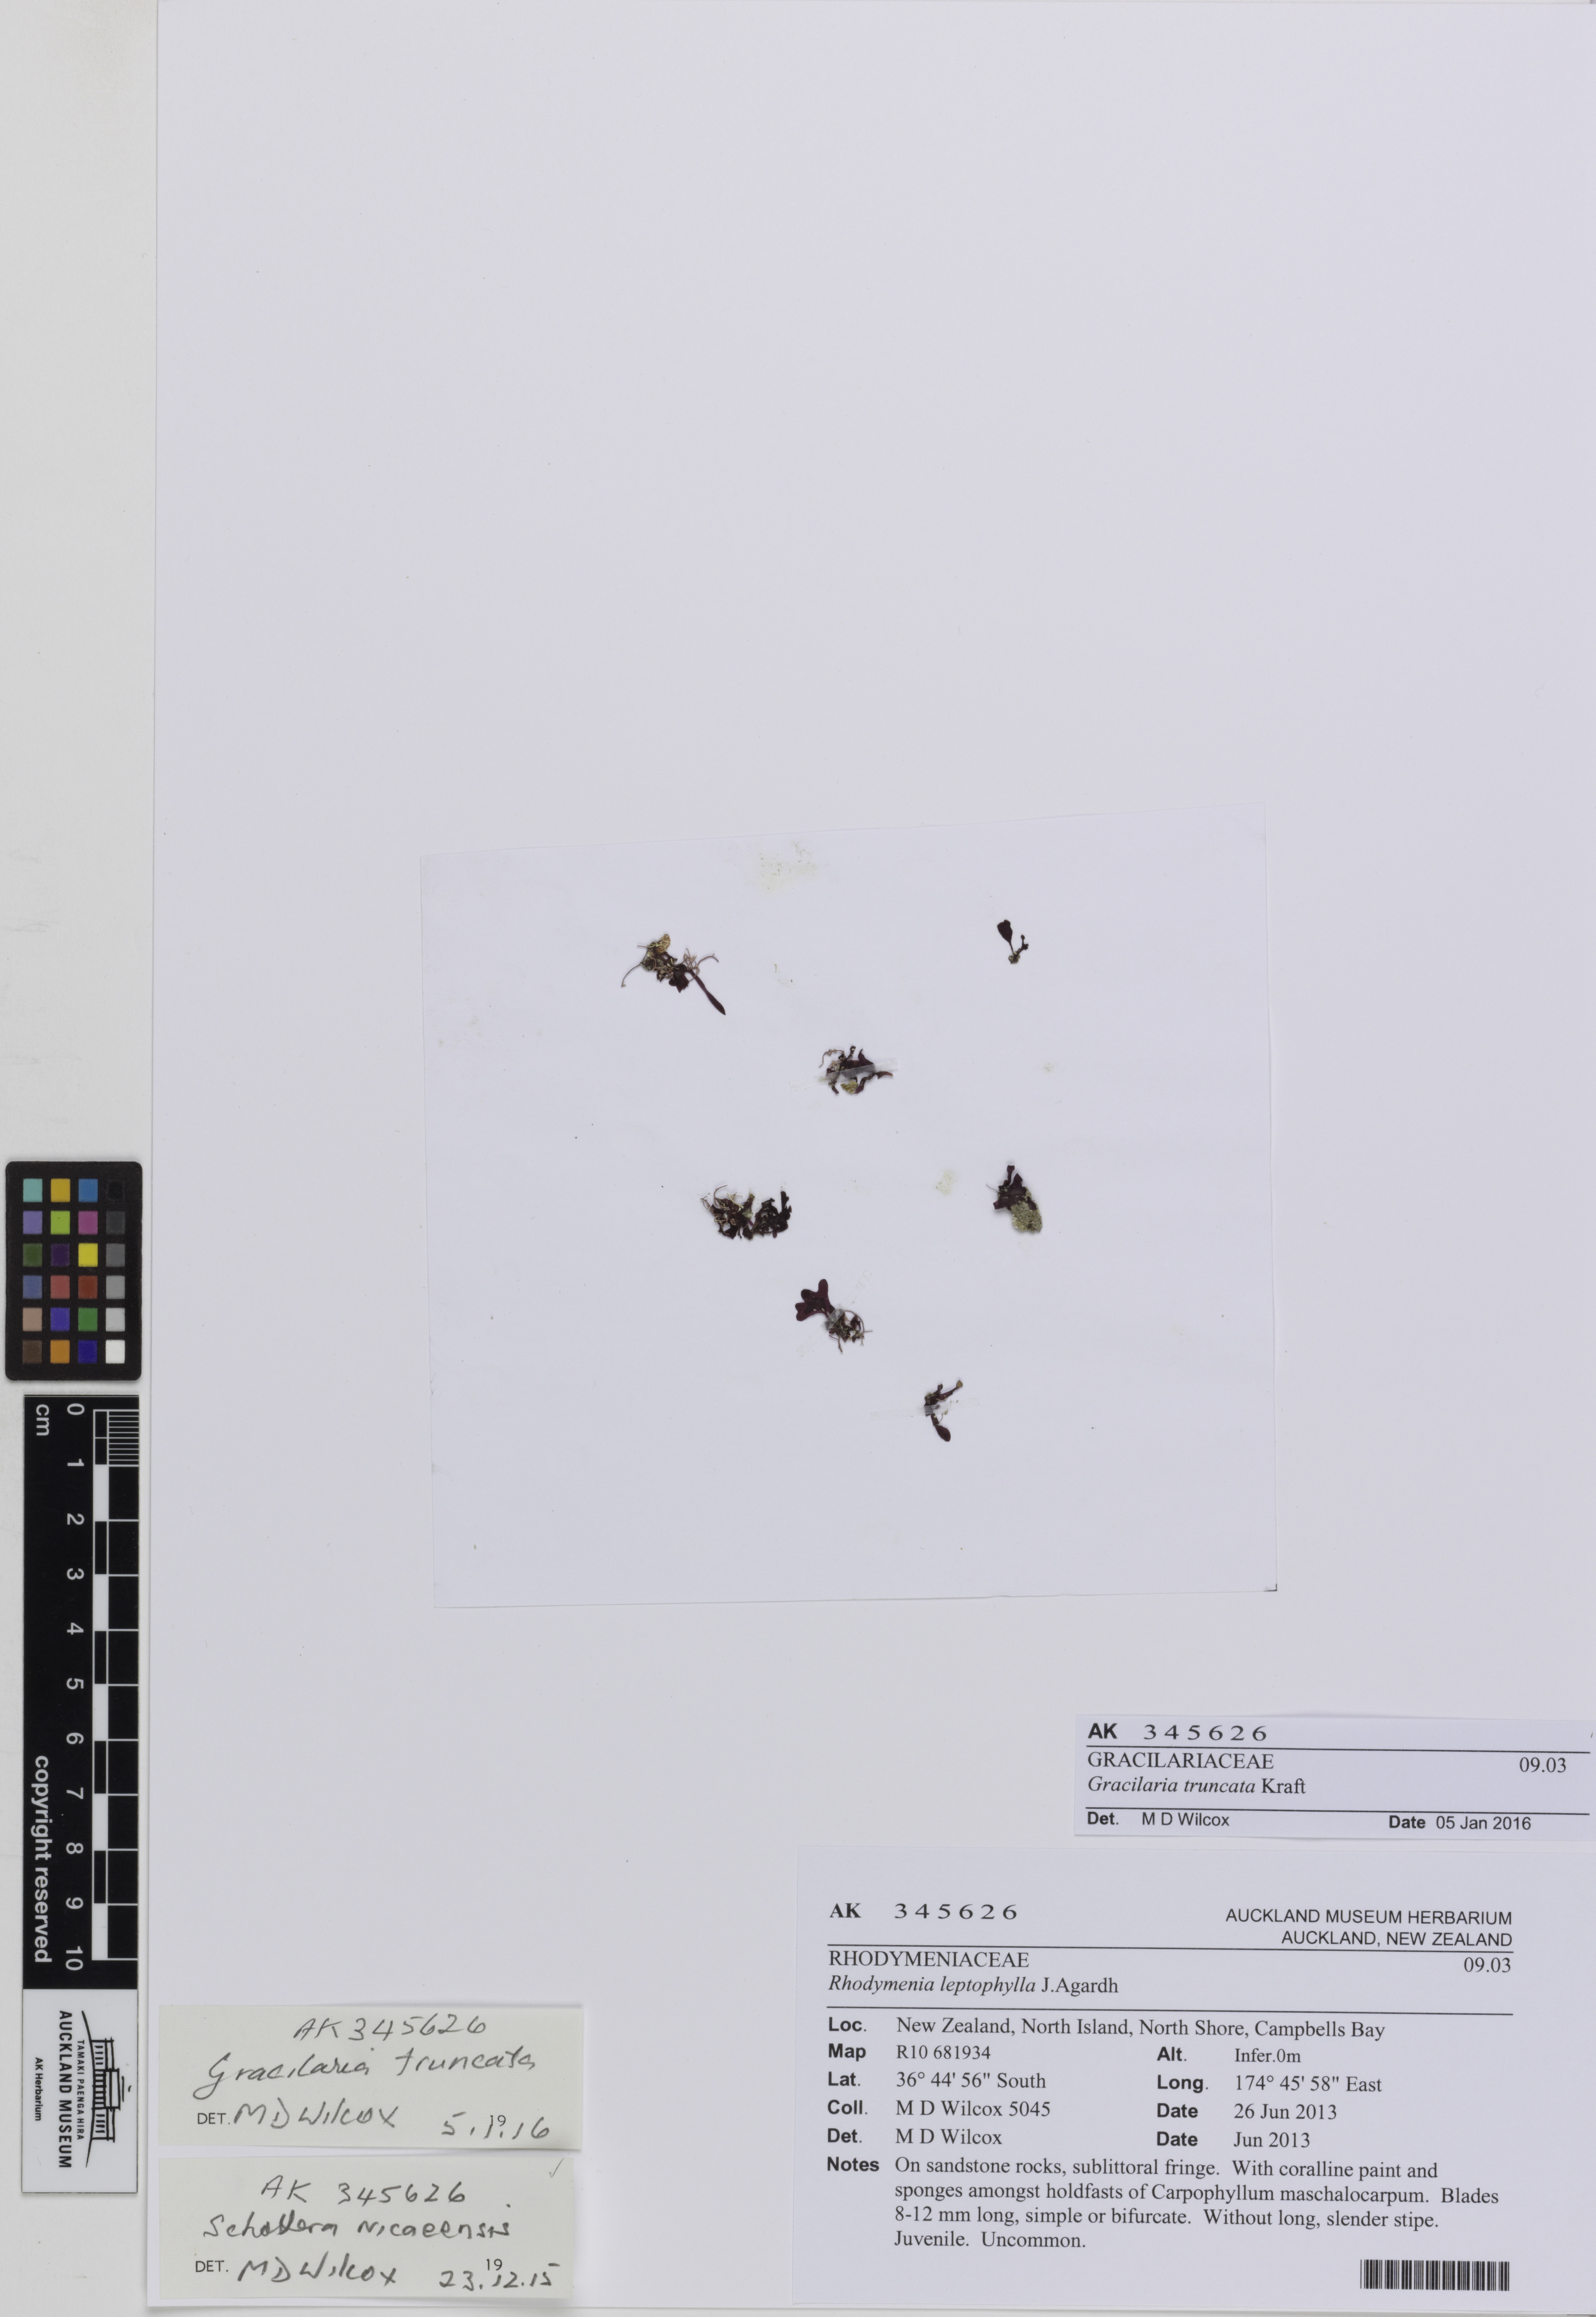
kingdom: Plantae
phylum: Rhodophyta
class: Florideophyceae
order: Gracilariales
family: Gracilariaceae
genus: Gracilaria
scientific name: Gracilaria truncata
